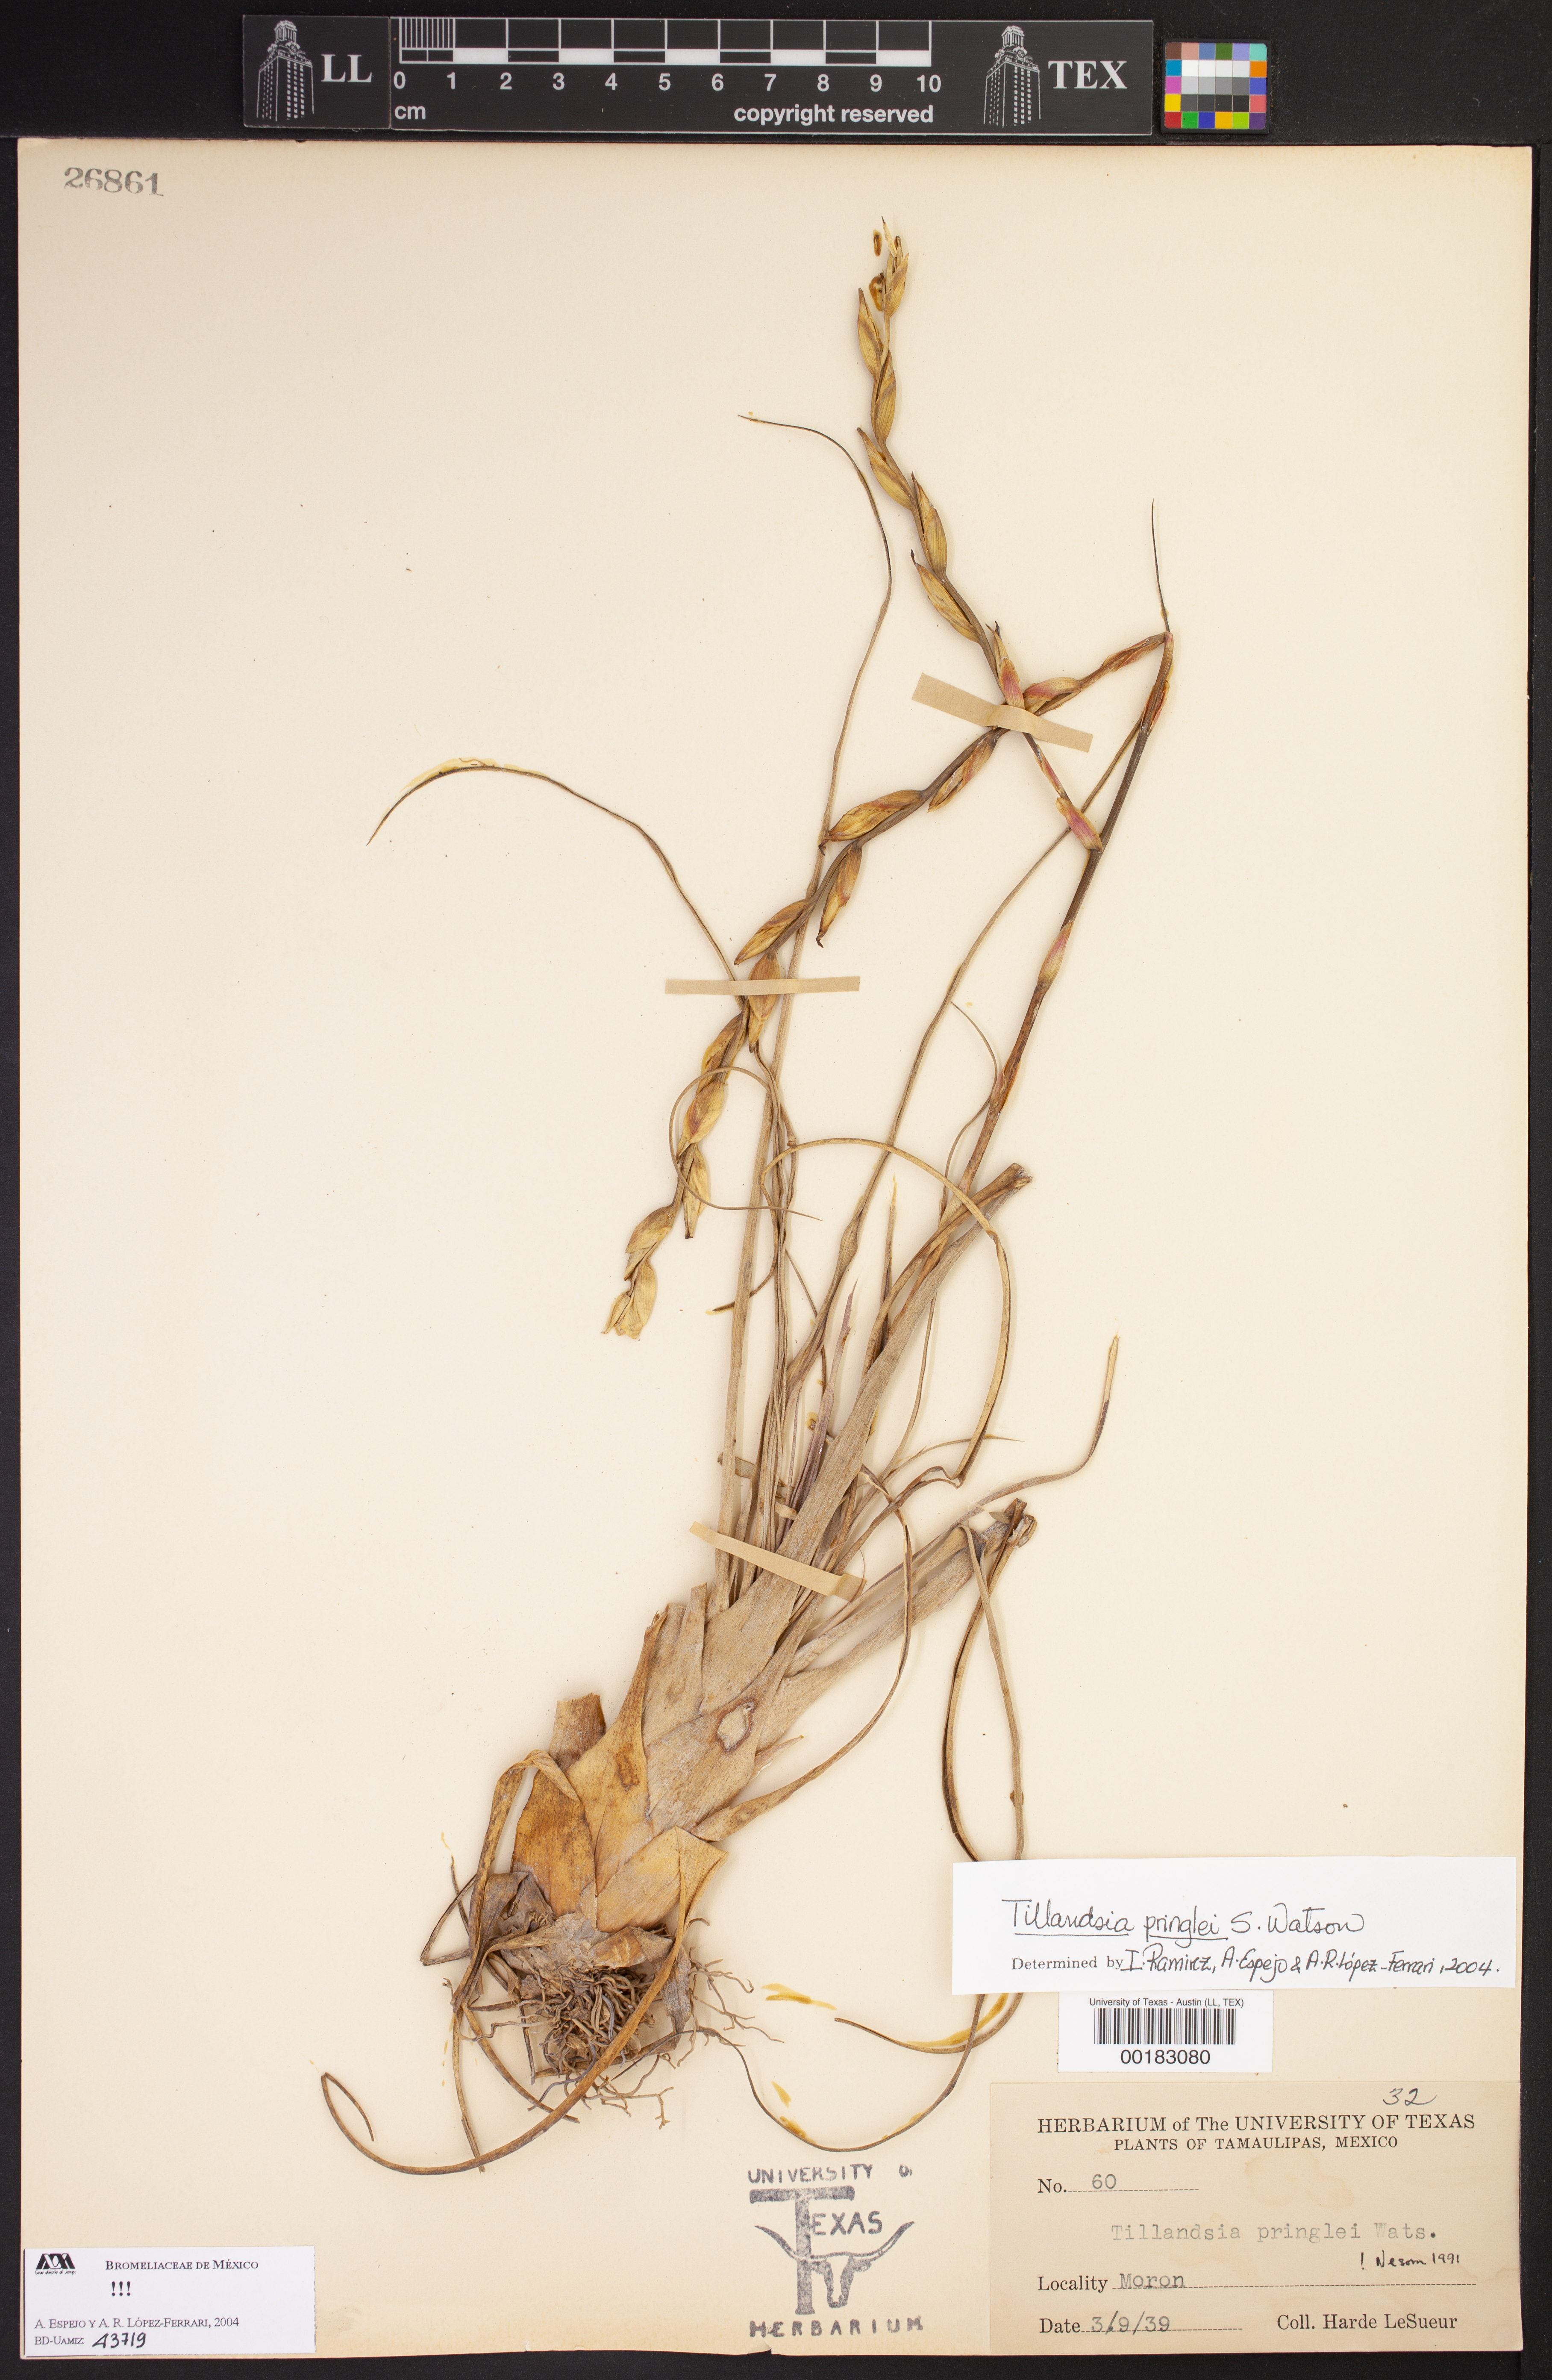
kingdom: Plantae
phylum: Tracheophyta
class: Liliopsida
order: Poales
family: Bromeliaceae
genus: Tillandsia
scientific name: Tillandsia pringlei
